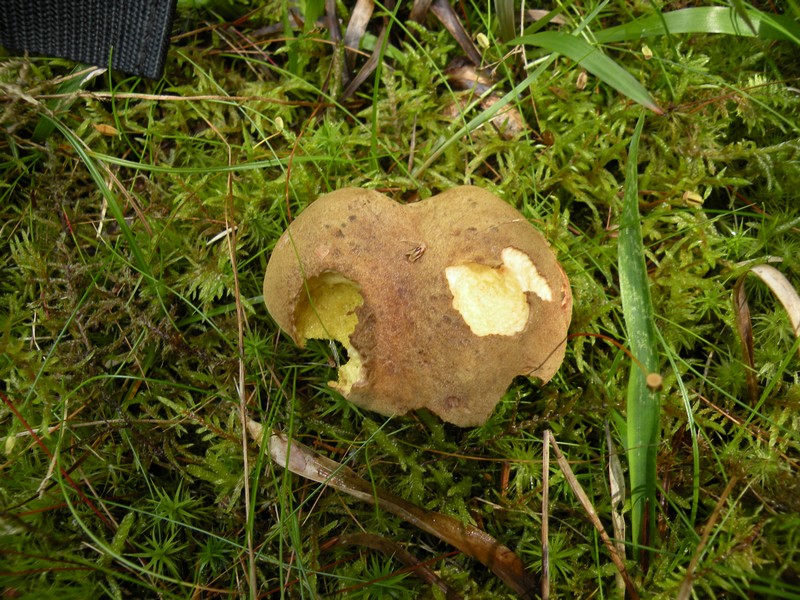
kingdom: Fungi
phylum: Basidiomycota
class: Agaricomycetes
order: Boletales
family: Boletaceae
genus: Xerocomus
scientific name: Xerocomus ferrugineus
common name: vaskeskinds-rørhat
